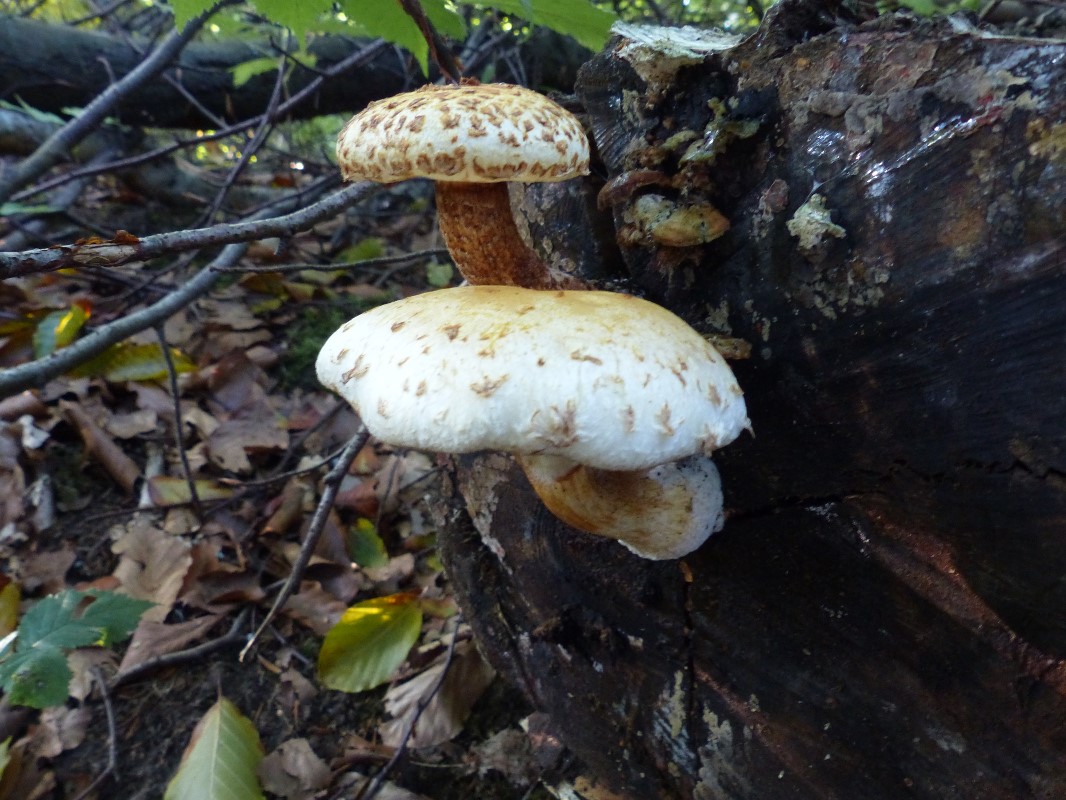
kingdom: Fungi
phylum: Basidiomycota
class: Agaricomycetes
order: Agaricales
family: Strophariaceae
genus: Pholiota
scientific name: Pholiota heteroclita
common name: duftende kæmpeskælhat
